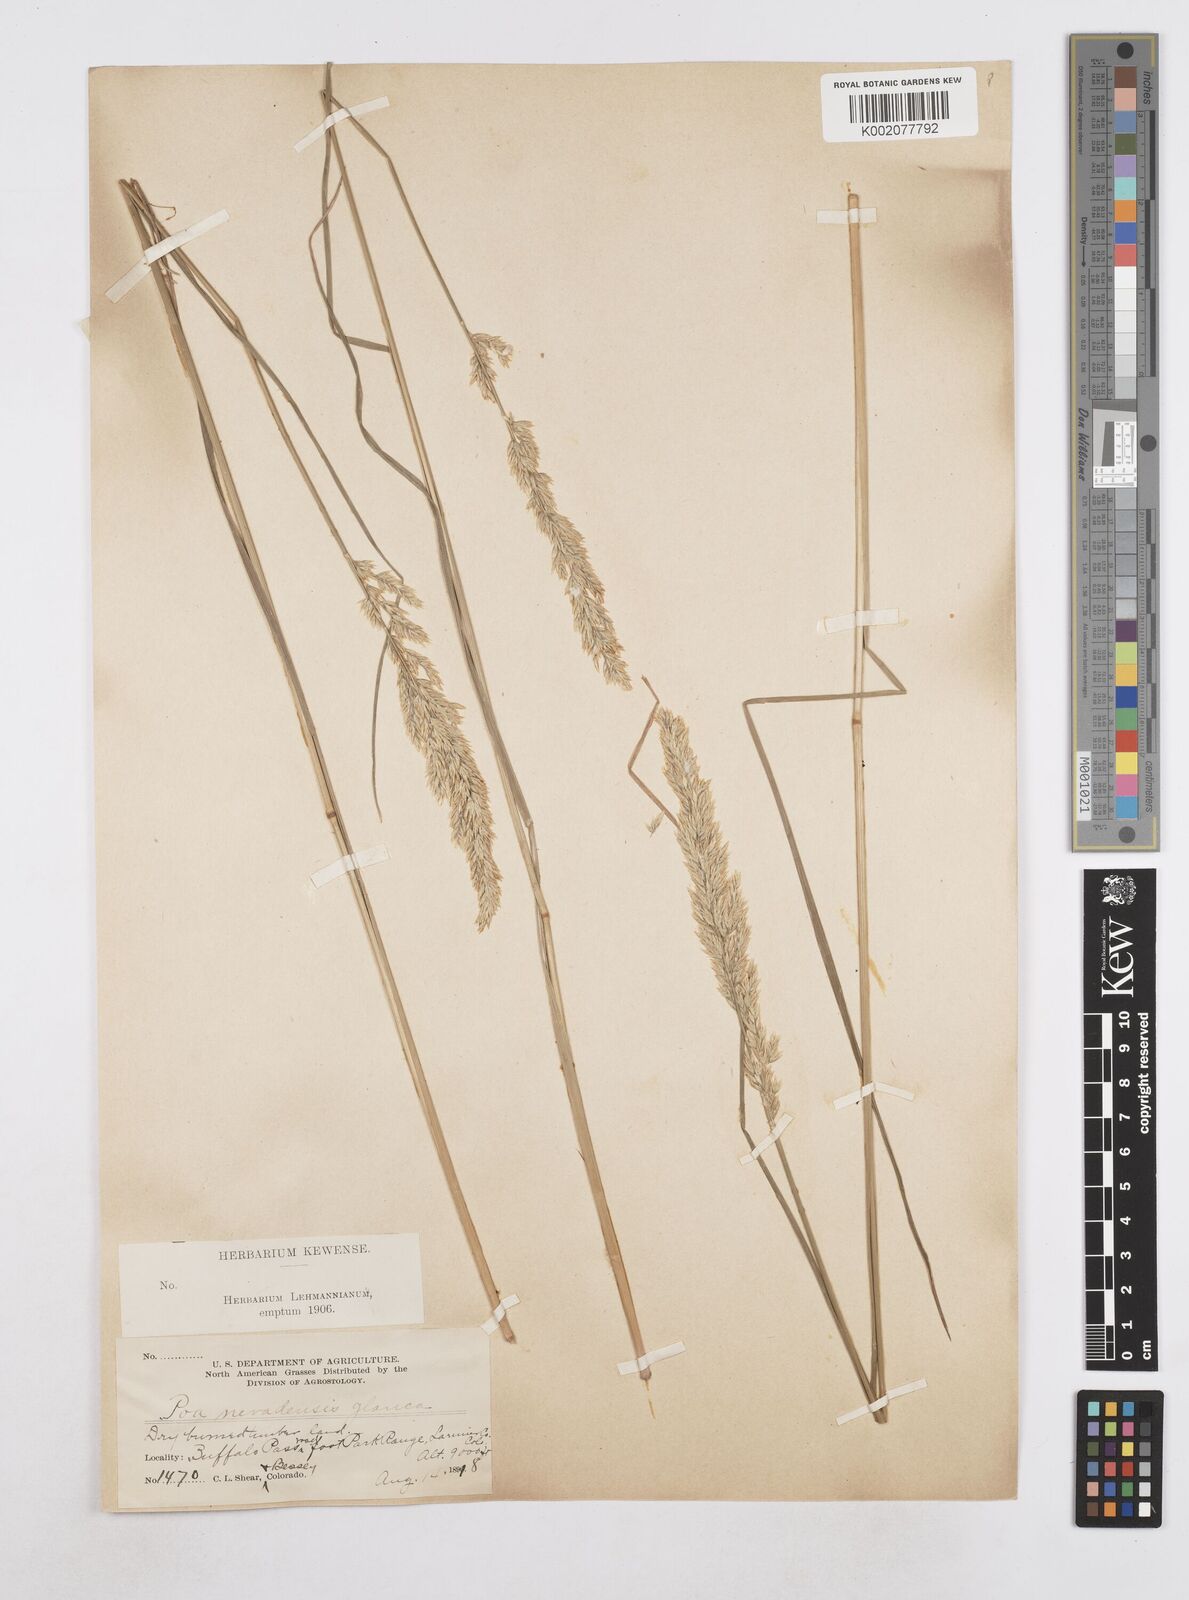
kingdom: Plantae
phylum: Tracheophyta
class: Liliopsida
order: Poales
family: Poaceae
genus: Poa
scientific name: Poa secunda
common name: Sandberg bluegrass
